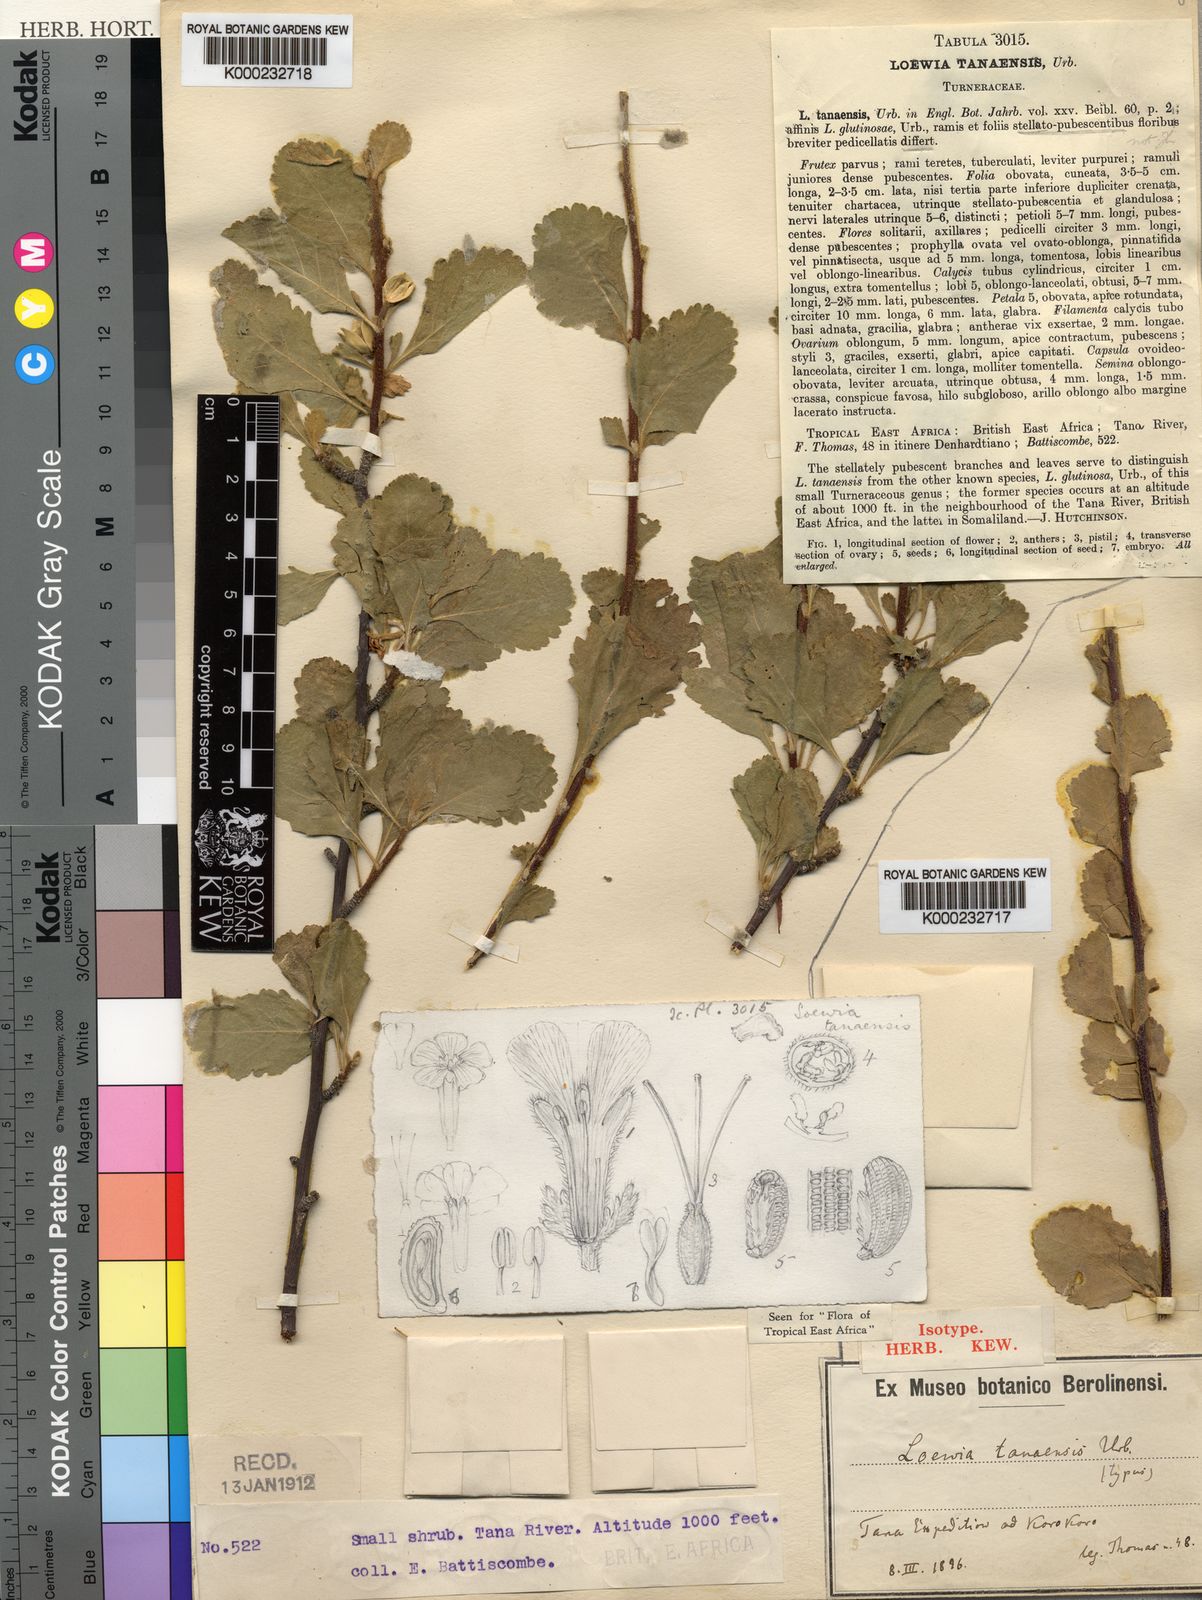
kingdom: Plantae
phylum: Tracheophyta
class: Magnoliopsida
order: Malpighiales
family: Turneraceae
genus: Loewia
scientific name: Loewia tanaensis
